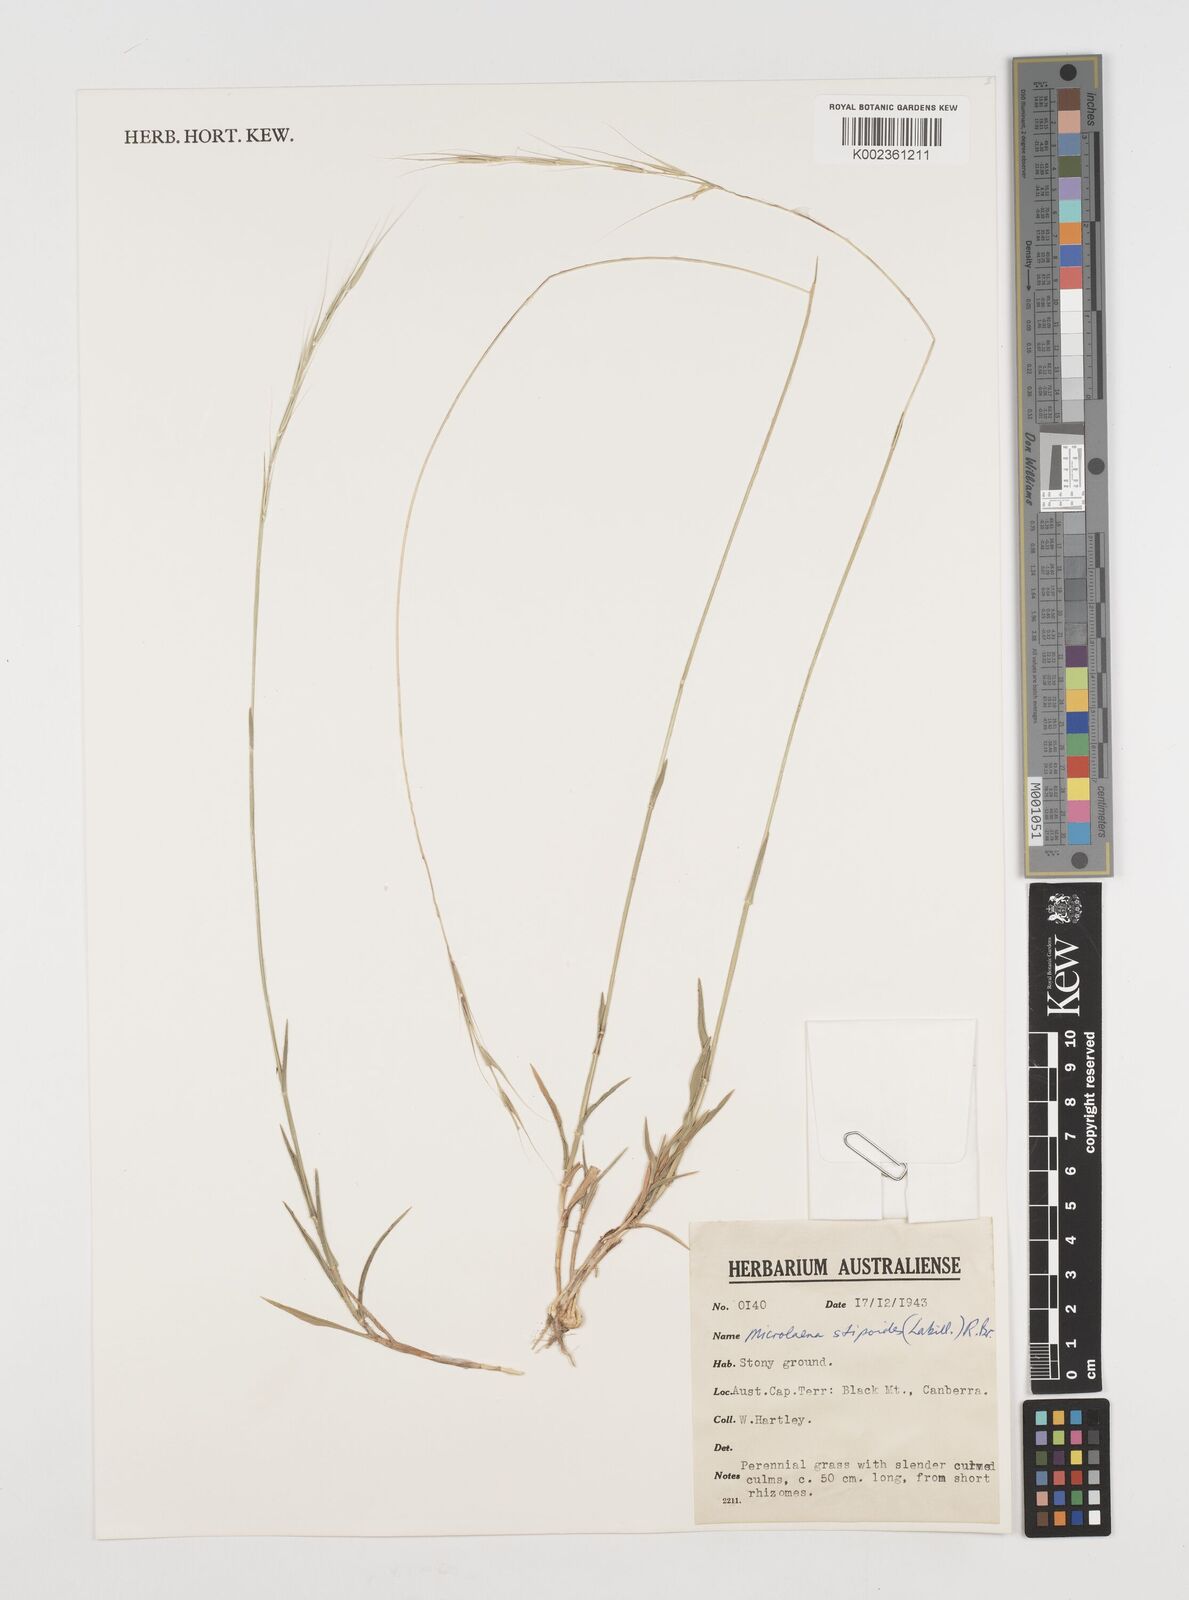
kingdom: Plantae
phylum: Tracheophyta
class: Liliopsida
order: Poales
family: Poaceae
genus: Microlaena
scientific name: Microlaena stipoides
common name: Meadow ricegrass
